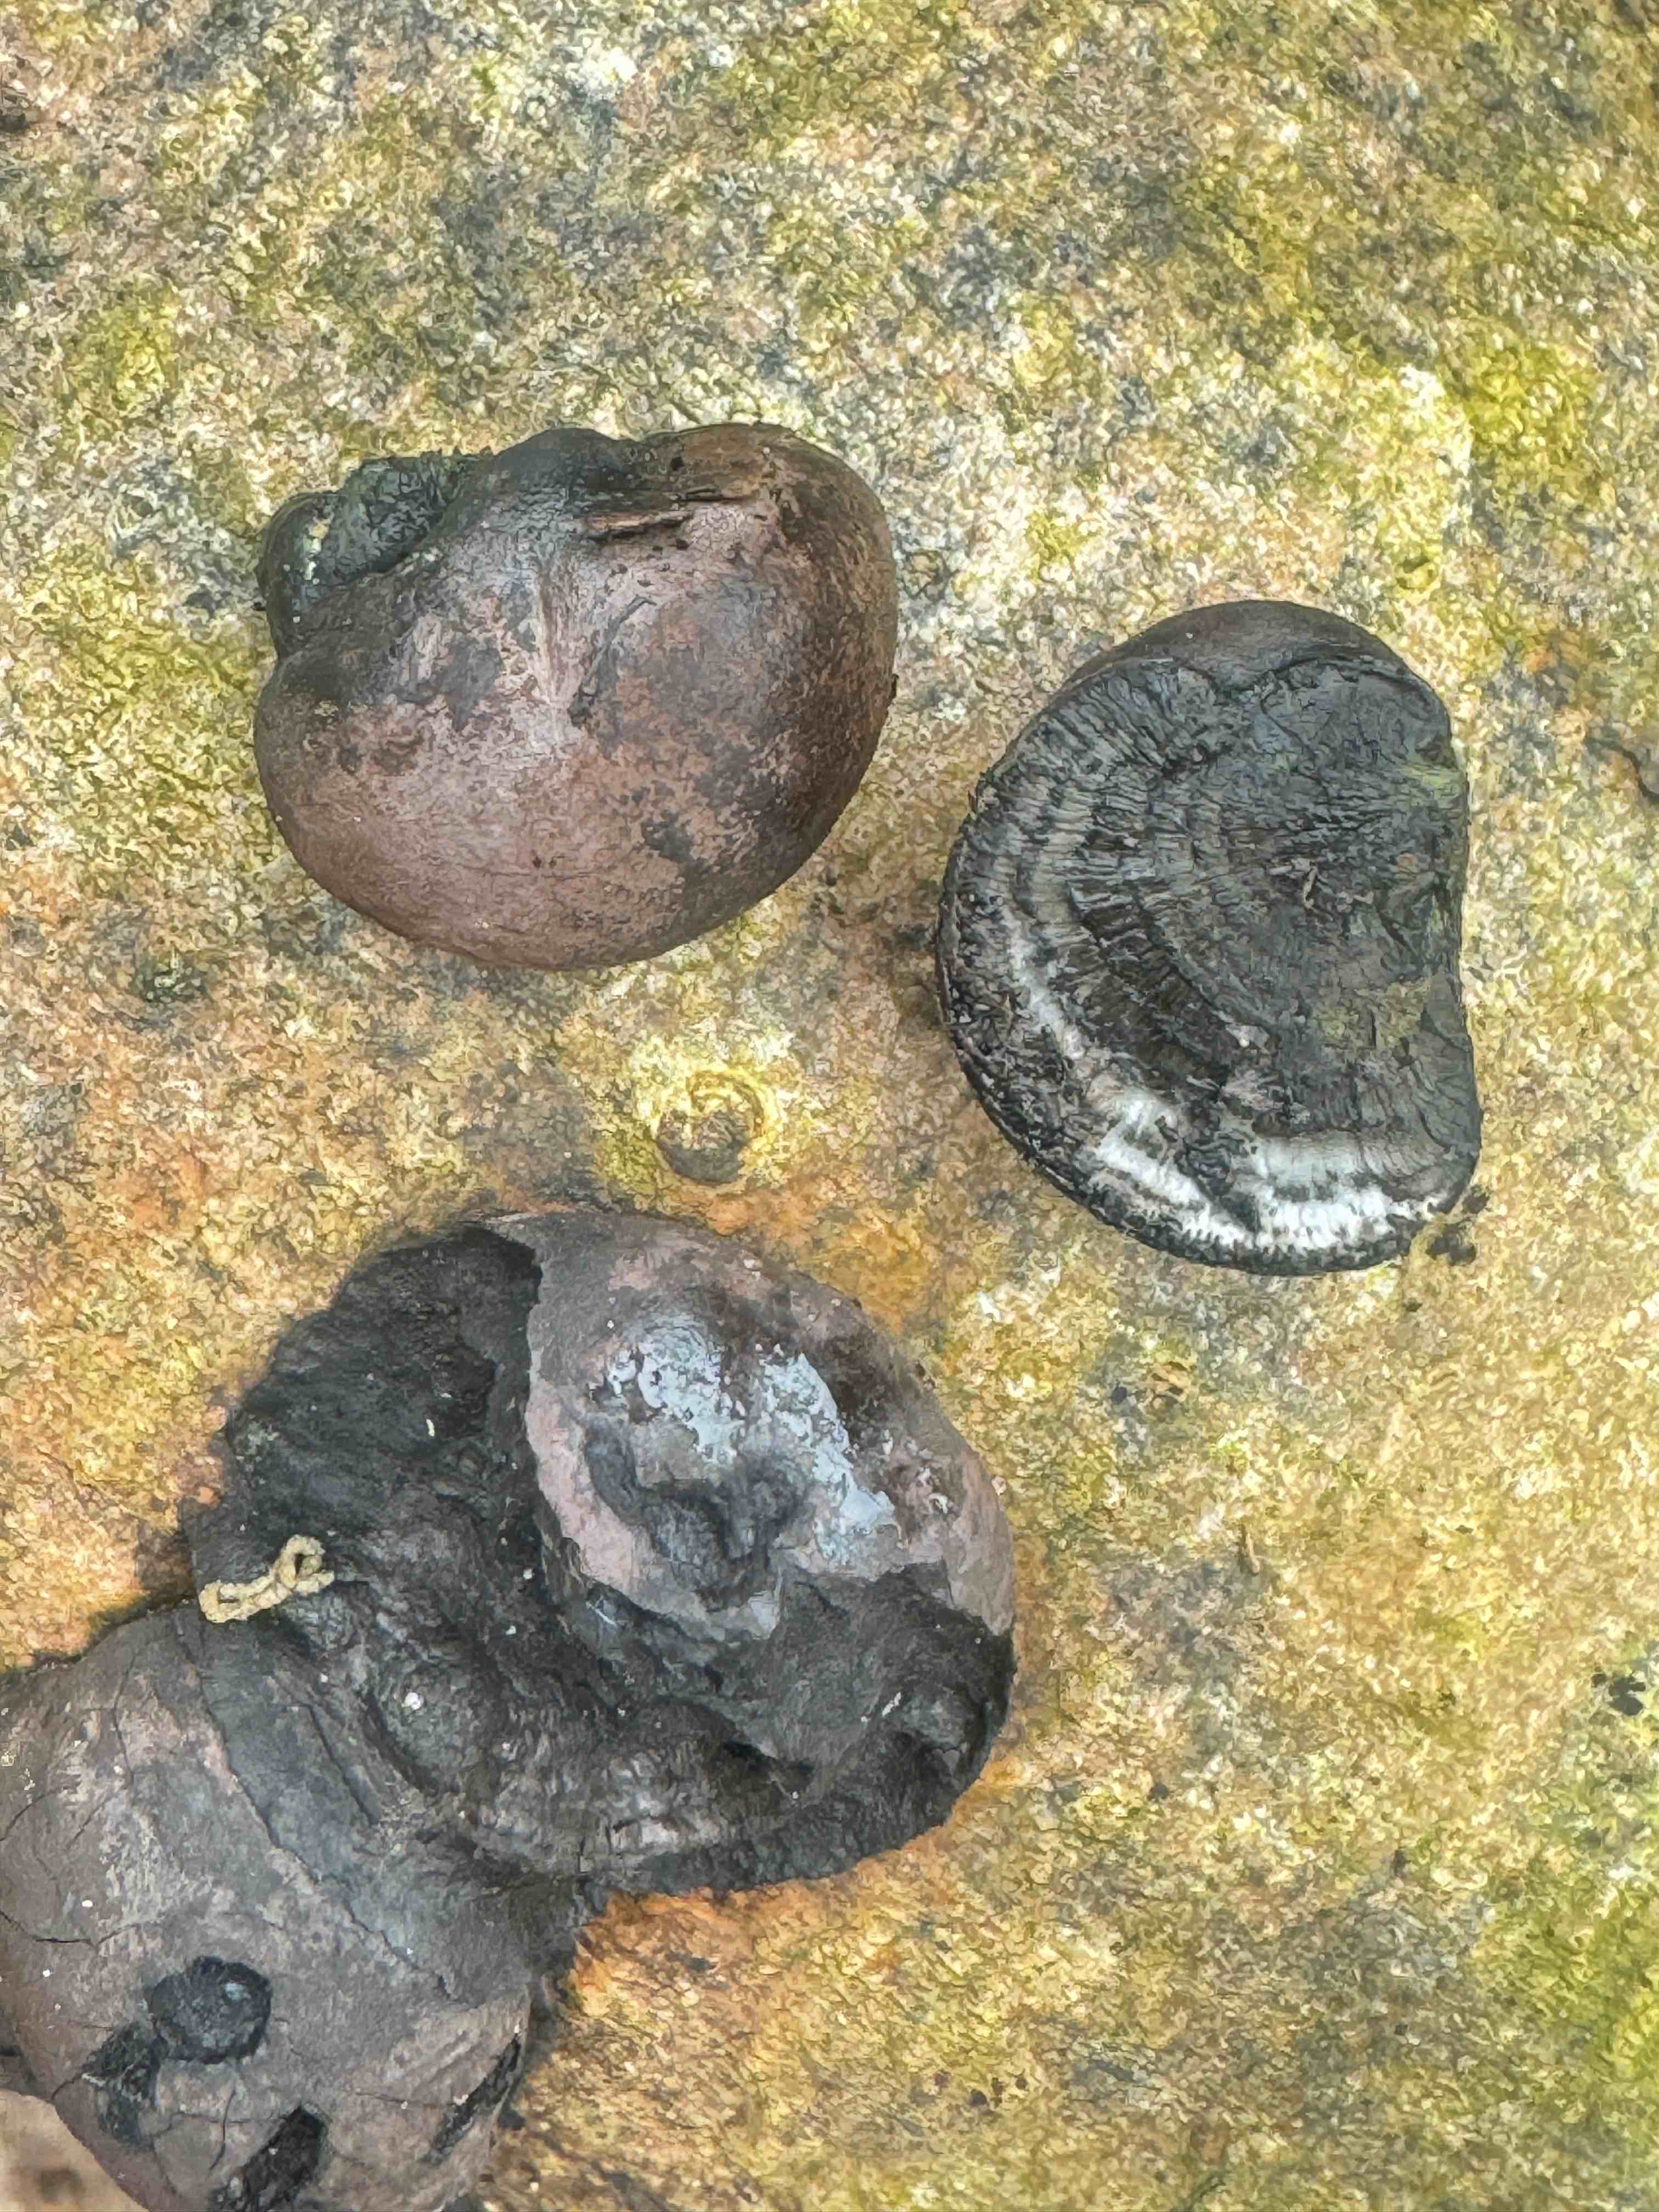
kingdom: Fungi
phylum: Ascomycota
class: Sordariomycetes
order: Xylariales
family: Hypoxylaceae
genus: Daldinia
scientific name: Daldinia concentrica
